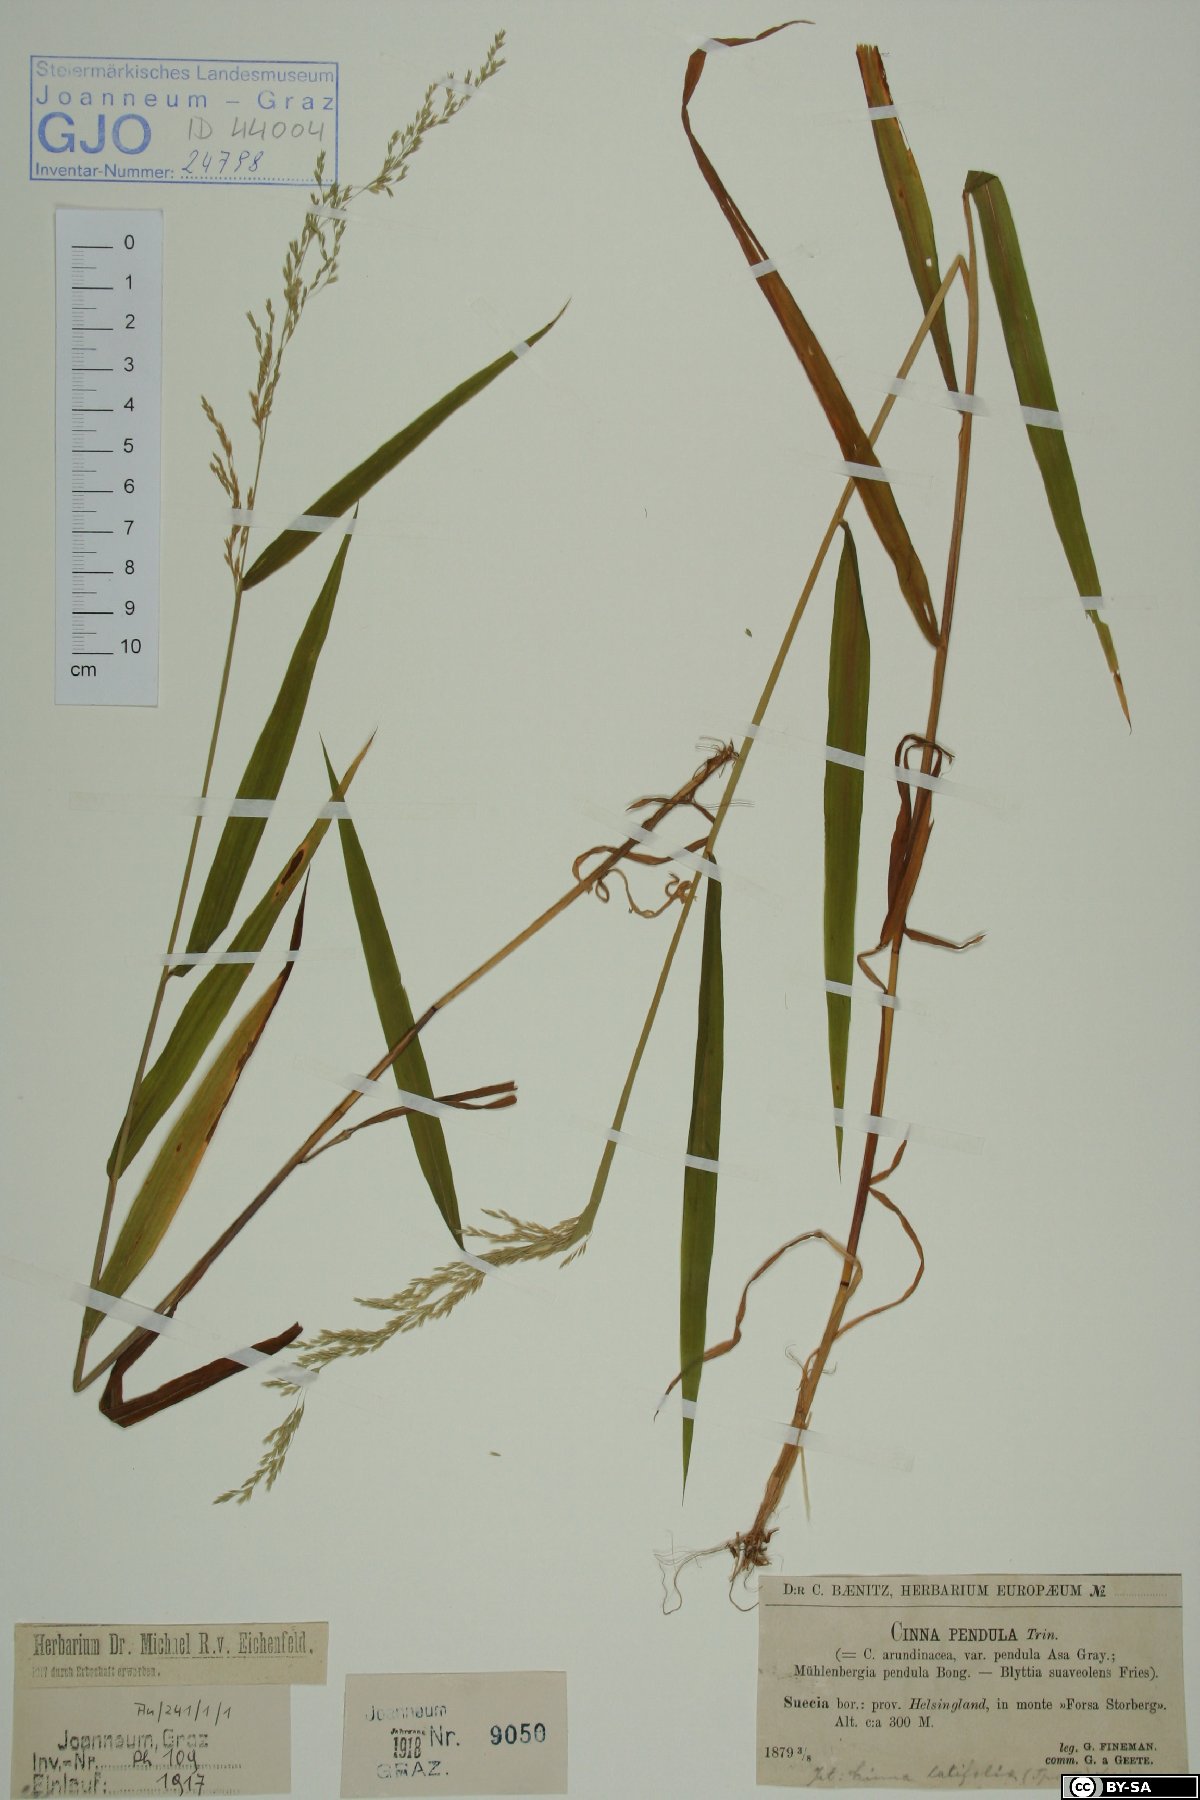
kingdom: Plantae
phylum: Tracheophyta
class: Liliopsida
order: Poales
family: Poaceae
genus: Cinna
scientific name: Cinna latifolia
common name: Drooping woodreed
